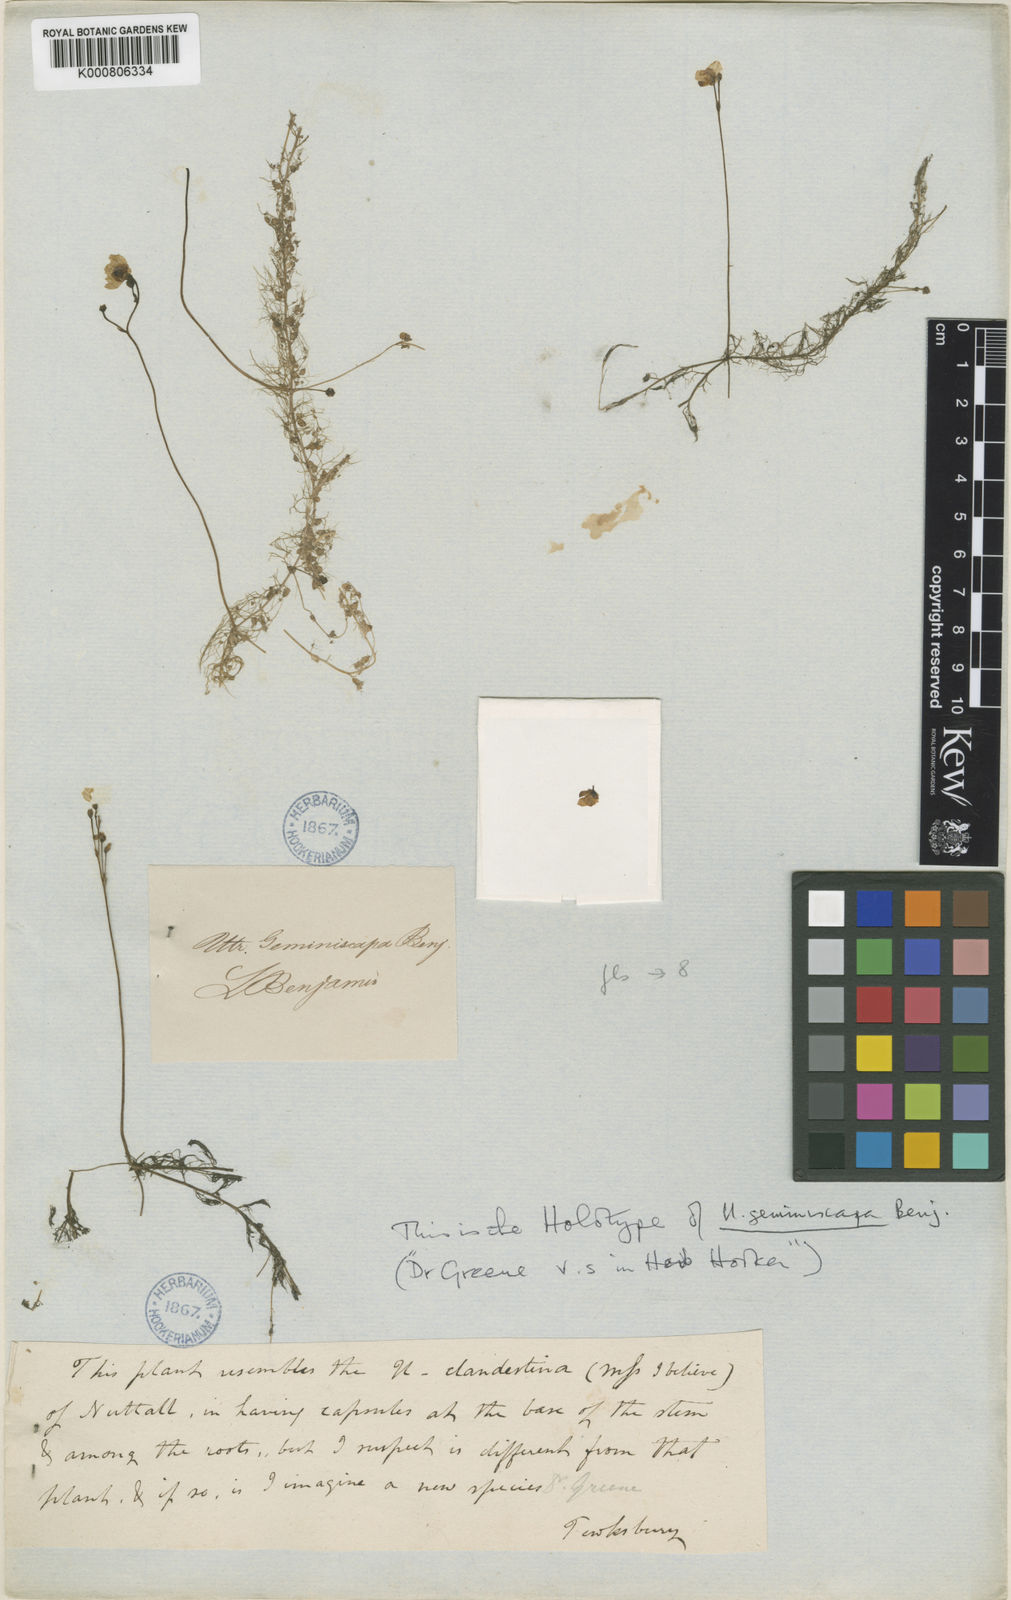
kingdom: Plantae
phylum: Tracheophyta
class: Magnoliopsida
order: Lamiales
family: Lentibulariaceae
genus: Utricularia
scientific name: Utricularia geminiscapa
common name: Hidden-fruit bladderwort
